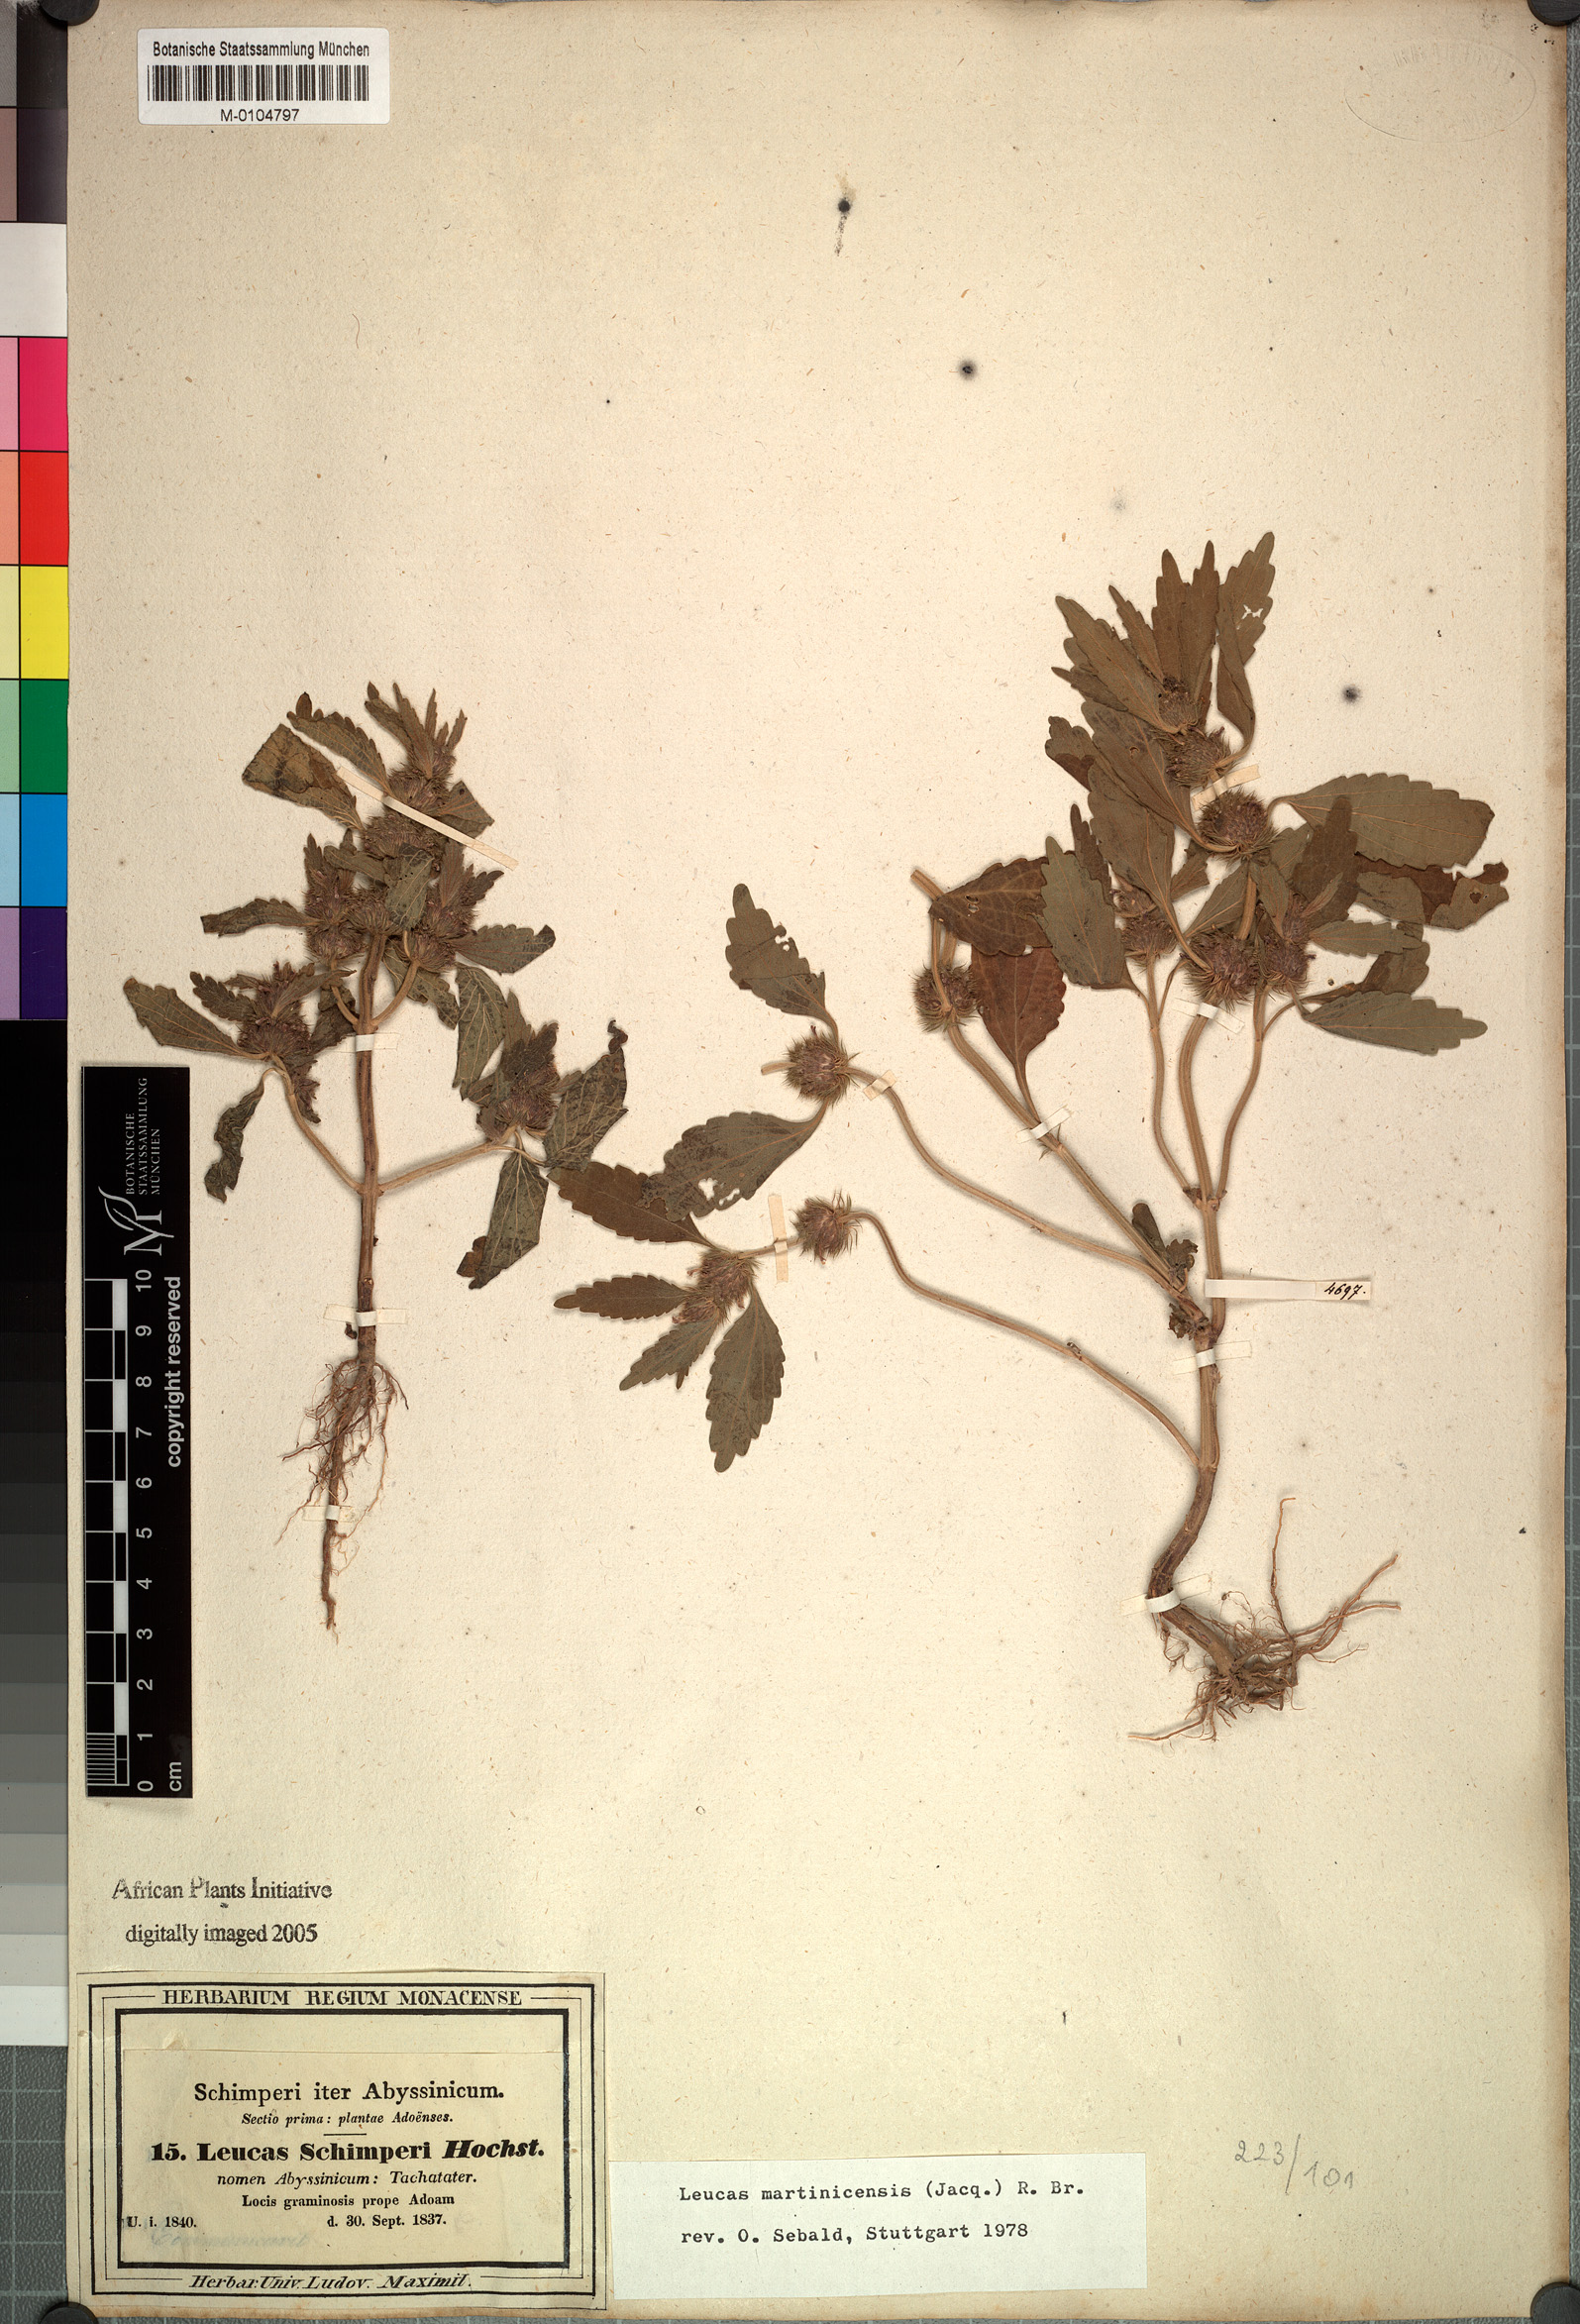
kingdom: Plantae
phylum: Tracheophyta
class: Magnoliopsida
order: Lamiales
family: Lamiaceae
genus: Leucas
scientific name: Leucas martinicensis
